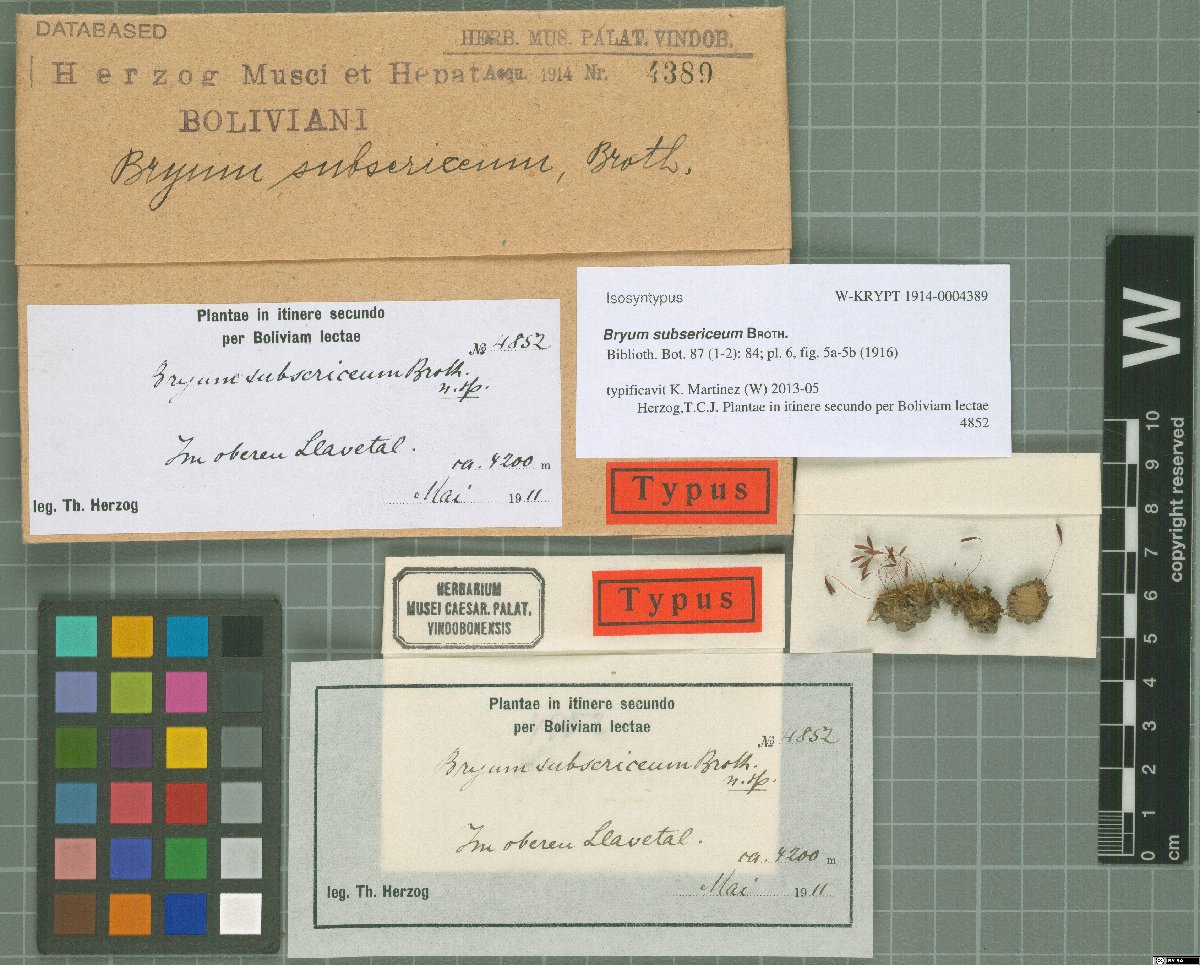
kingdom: Plantae
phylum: Bryophyta
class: Bryopsida
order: Bryales
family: Bryaceae
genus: Brachymenium
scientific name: Brachymenium fabronioides
